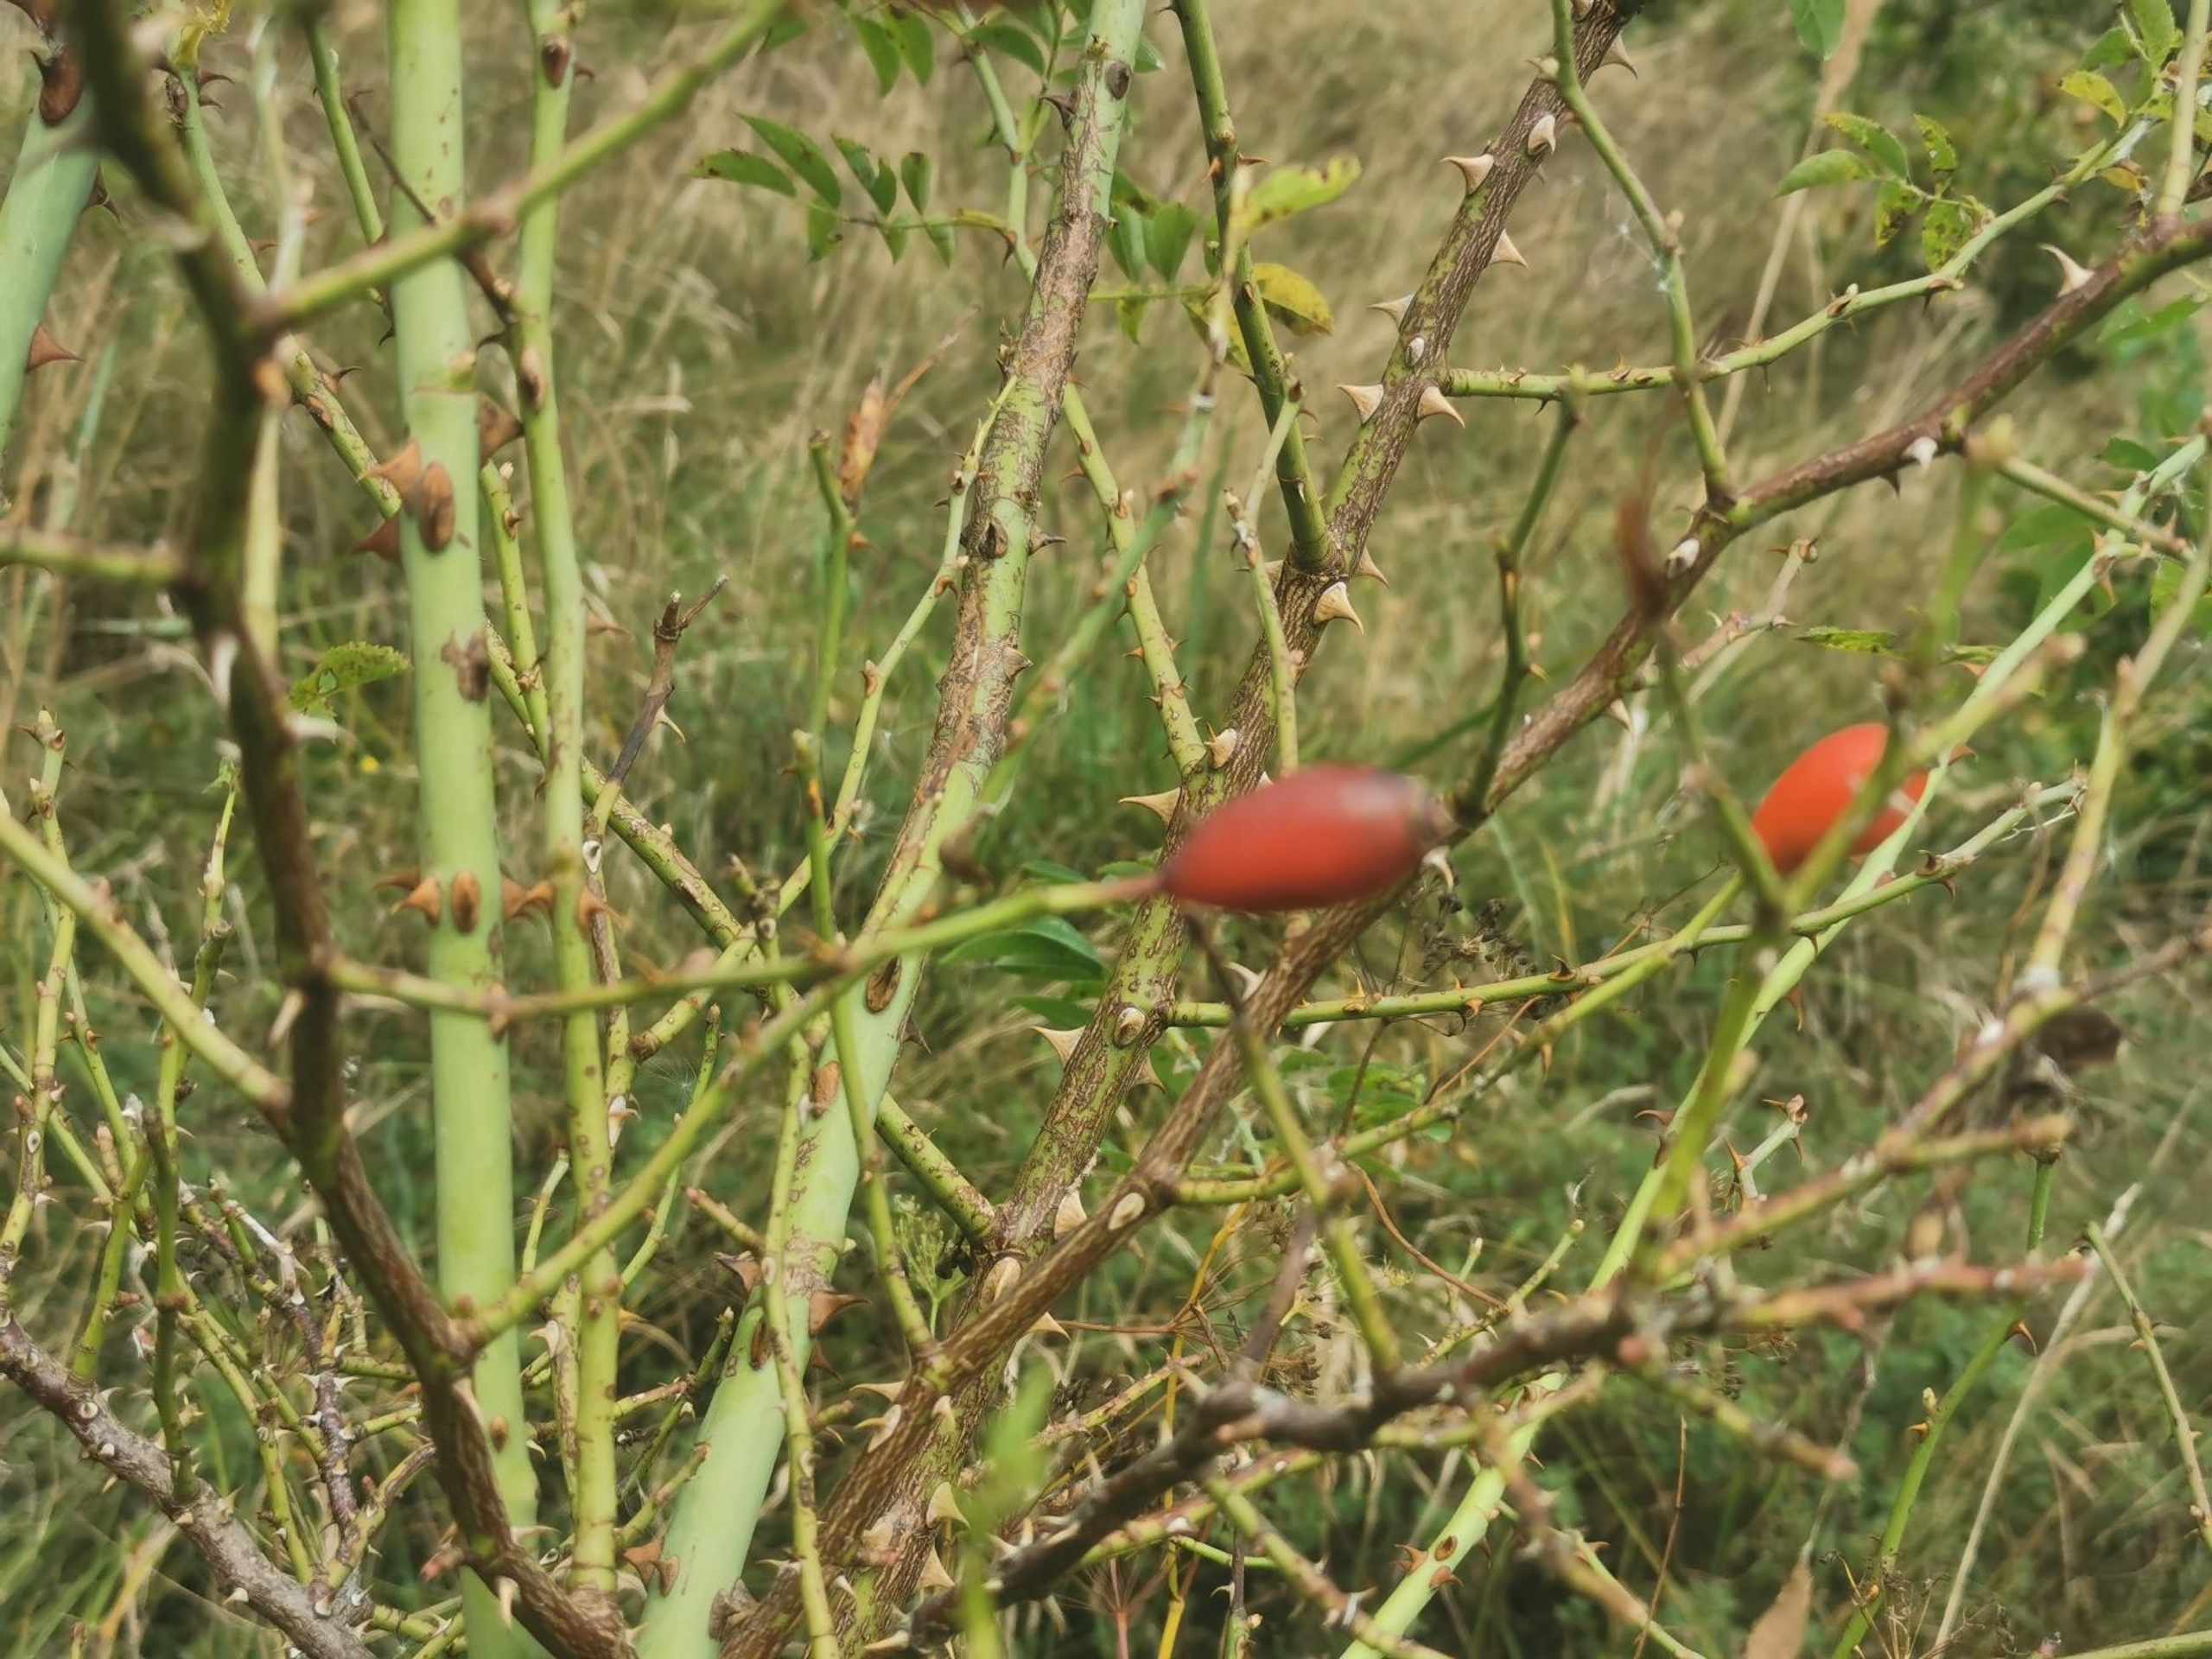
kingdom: Plantae
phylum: Tracheophyta
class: Magnoliopsida
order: Rosales
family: Rosaceae
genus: Rosa
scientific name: Rosa canina
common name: Glat hunde-rose
